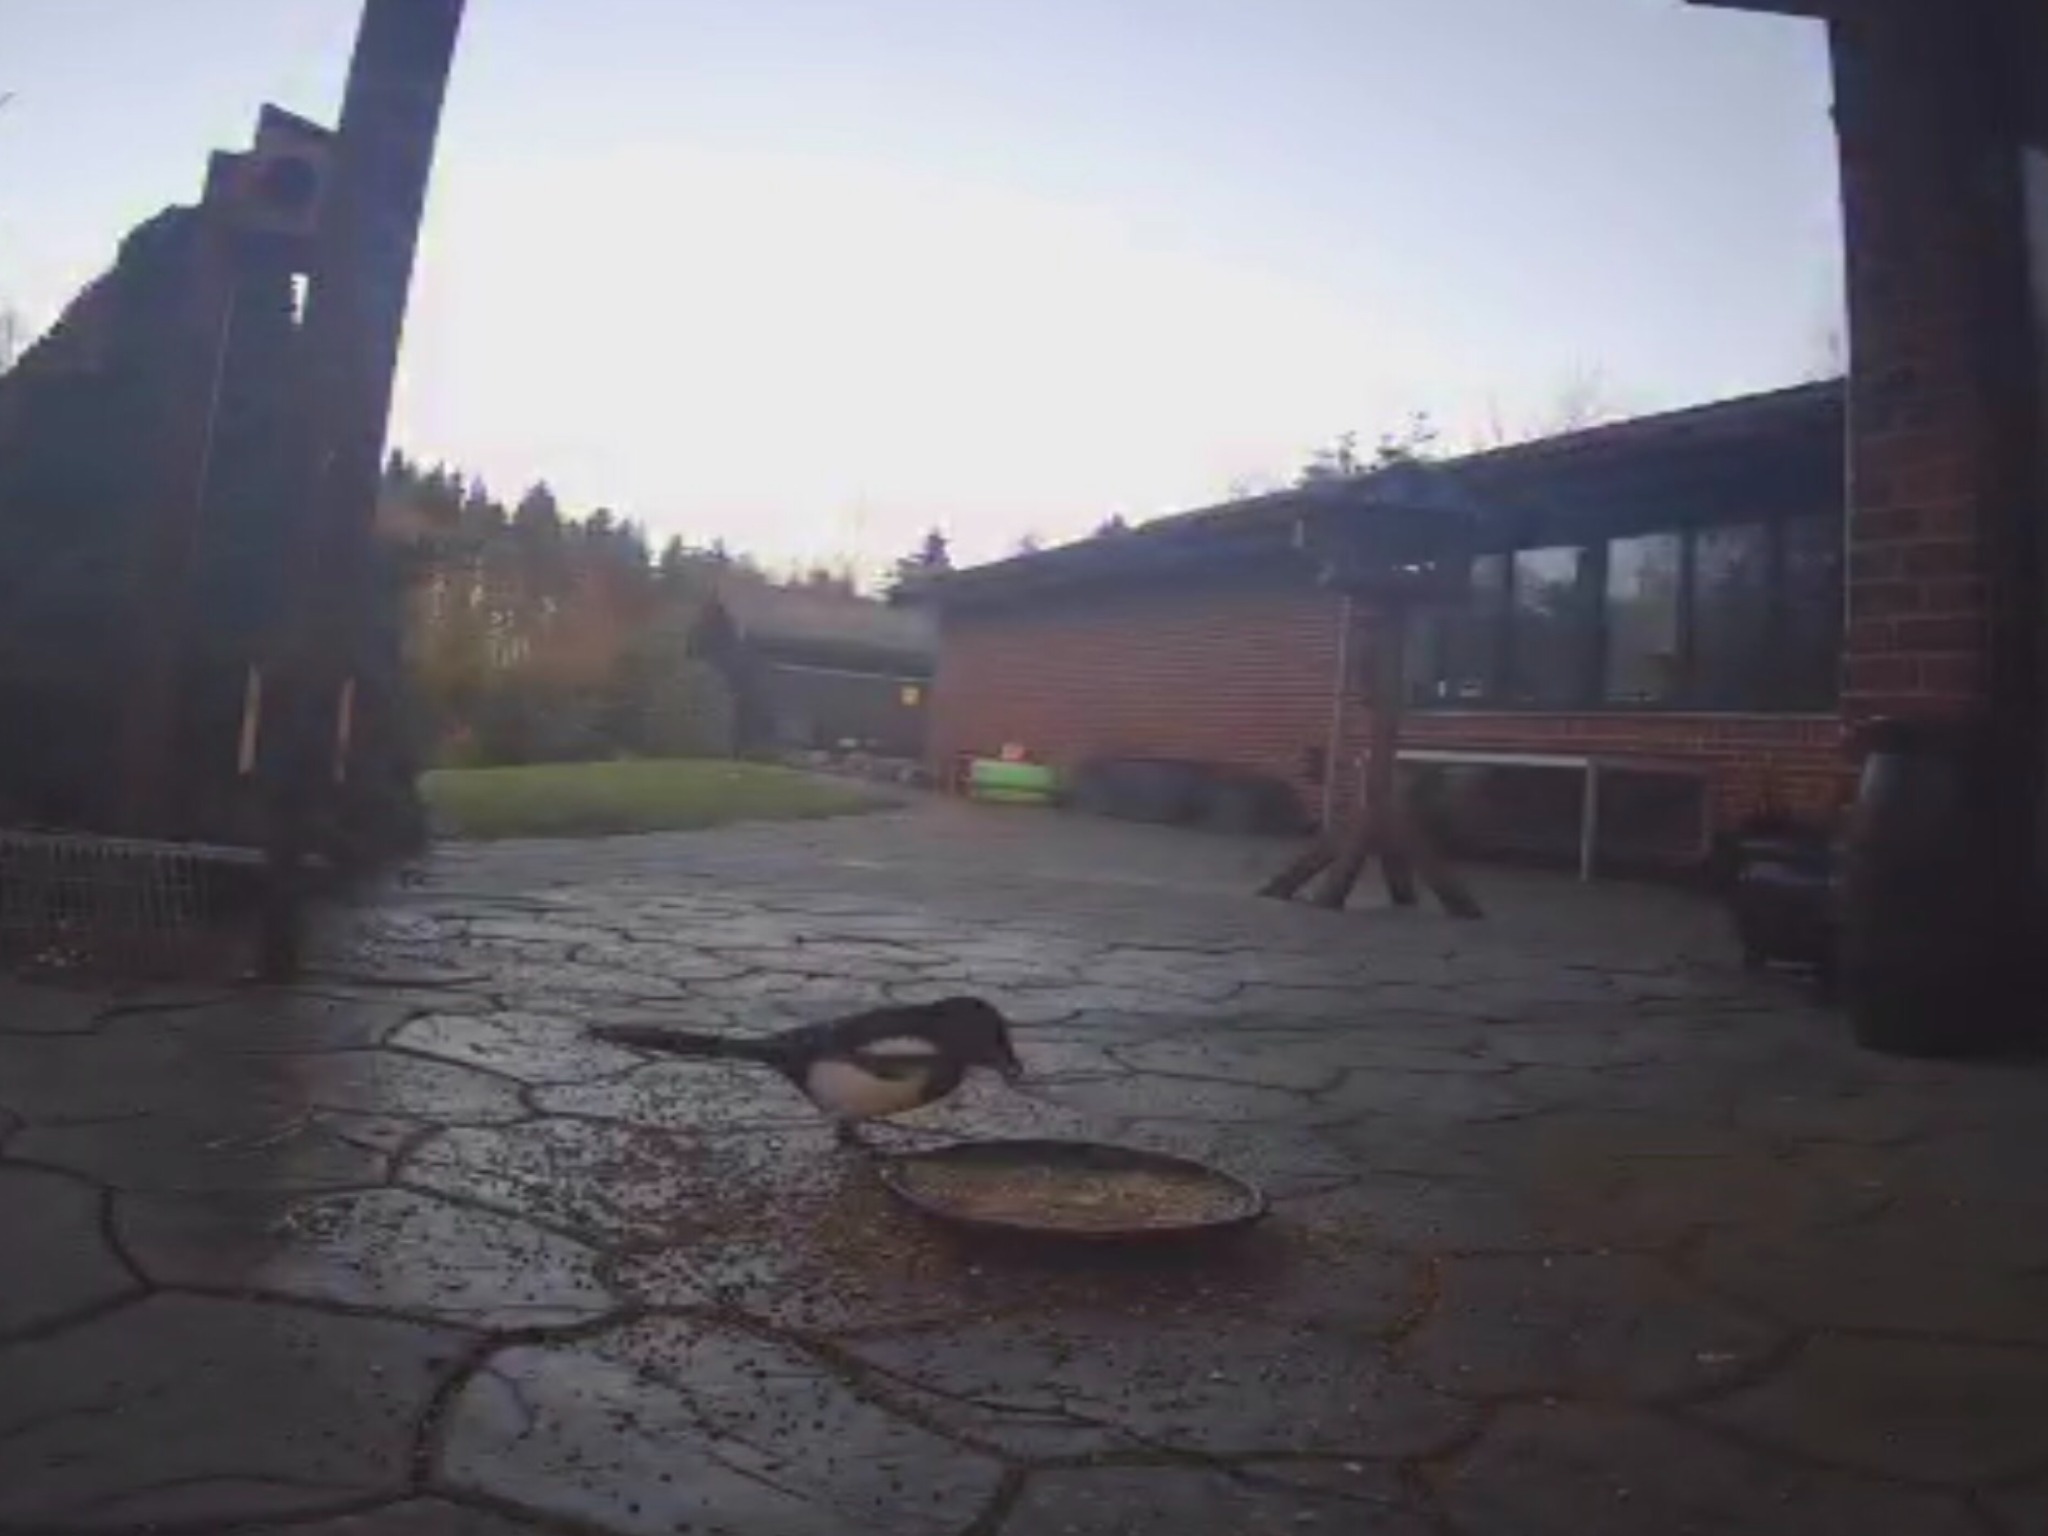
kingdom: Animalia
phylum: Chordata
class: Aves
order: Passeriformes
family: Corvidae
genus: Pica
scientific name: Pica pica
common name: Husskade
